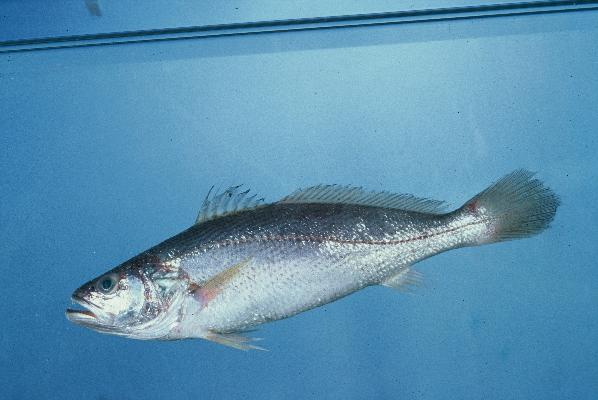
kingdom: Animalia
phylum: Chordata
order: Perciformes
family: Sciaenidae
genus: Otolithes
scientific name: Otolithes ruber
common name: Croaker
